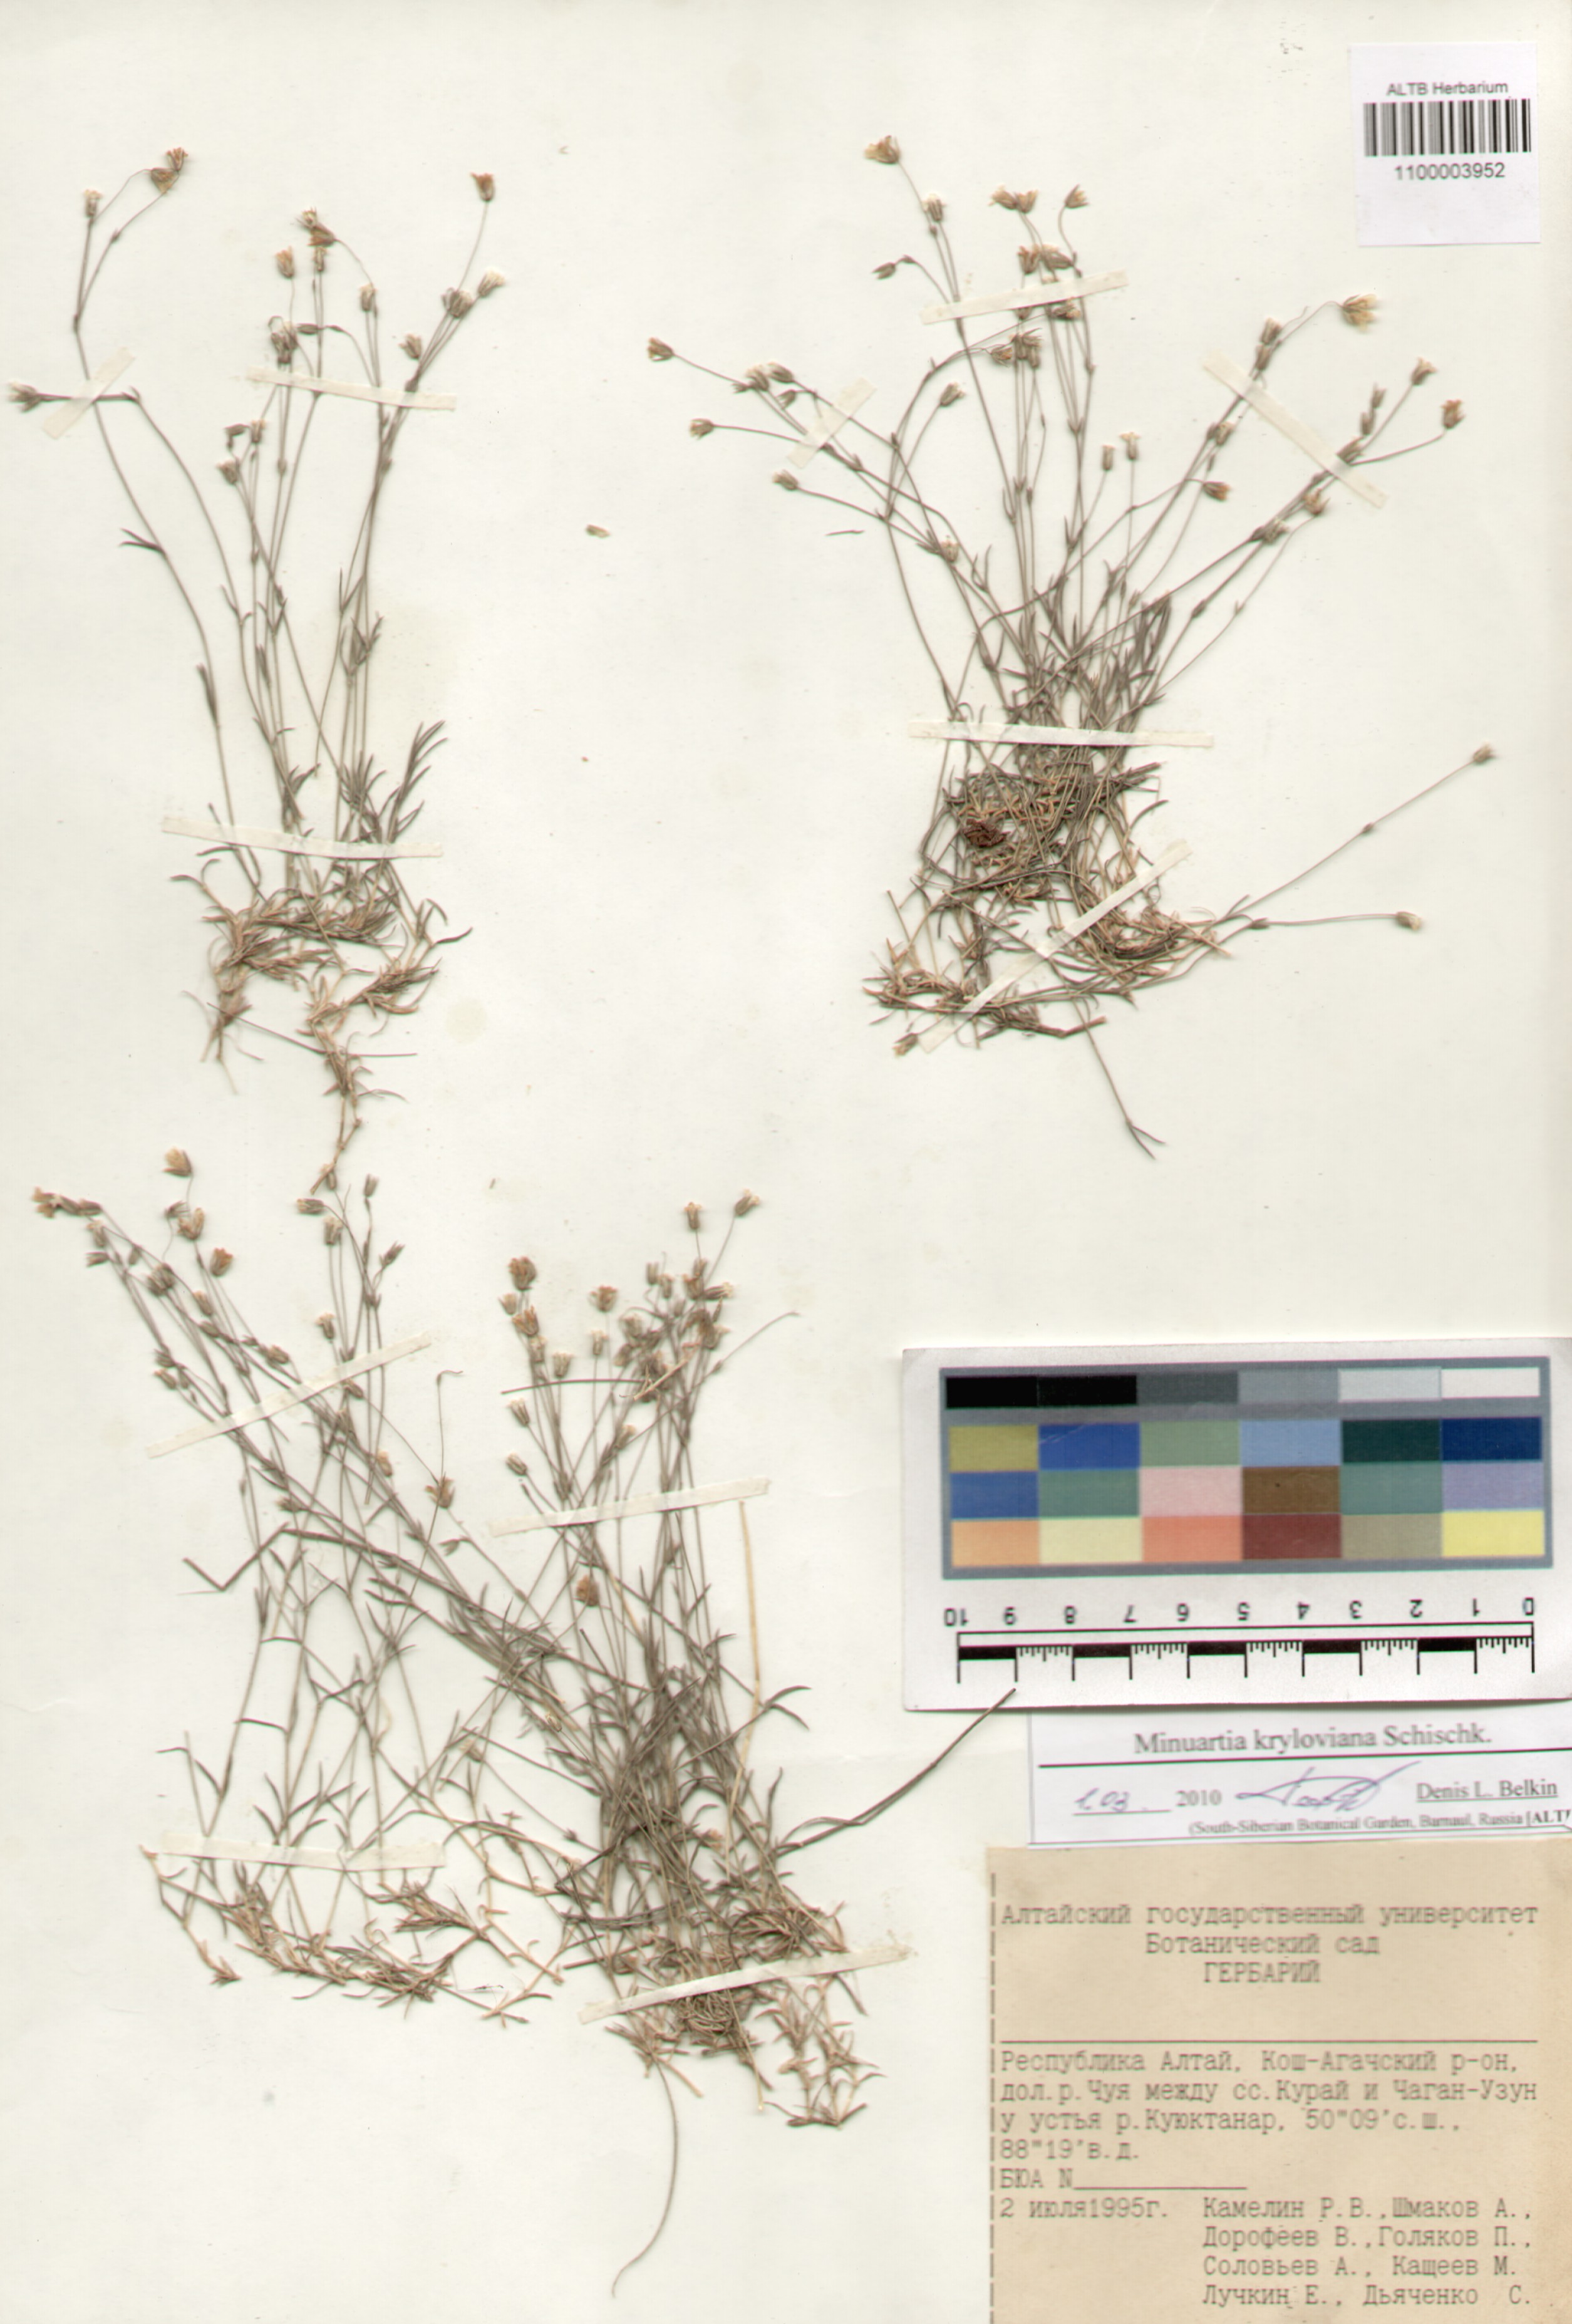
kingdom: Plantae
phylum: Tracheophyta
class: Magnoliopsida
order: Caryophyllales
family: Caryophyllaceae
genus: Sabulina
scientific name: Sabulina kryloviana
